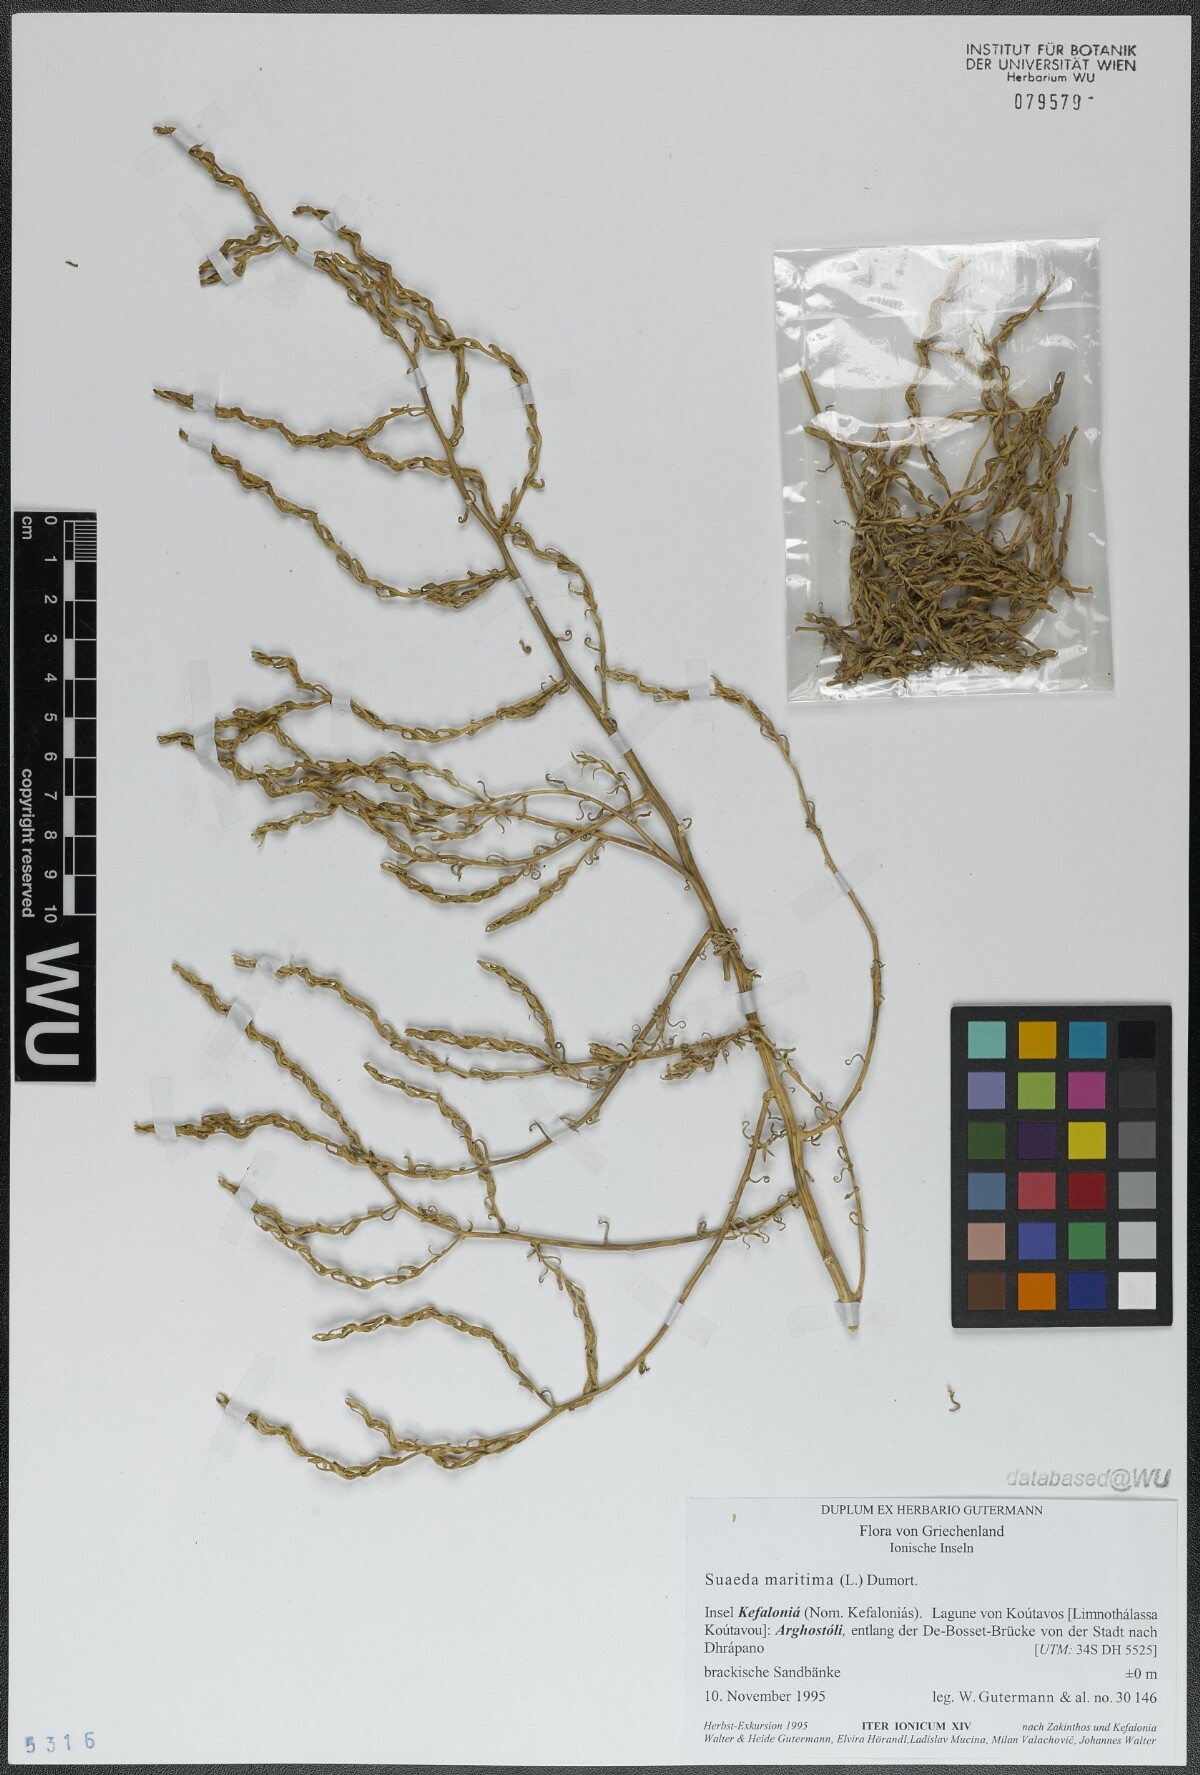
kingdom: Plantae
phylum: Tracheophyta
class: Magnoliopsida
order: Caryophyllales
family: Amaranthaceae
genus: Suaeda
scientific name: Suaeda maritima
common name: Annual sea-blite
